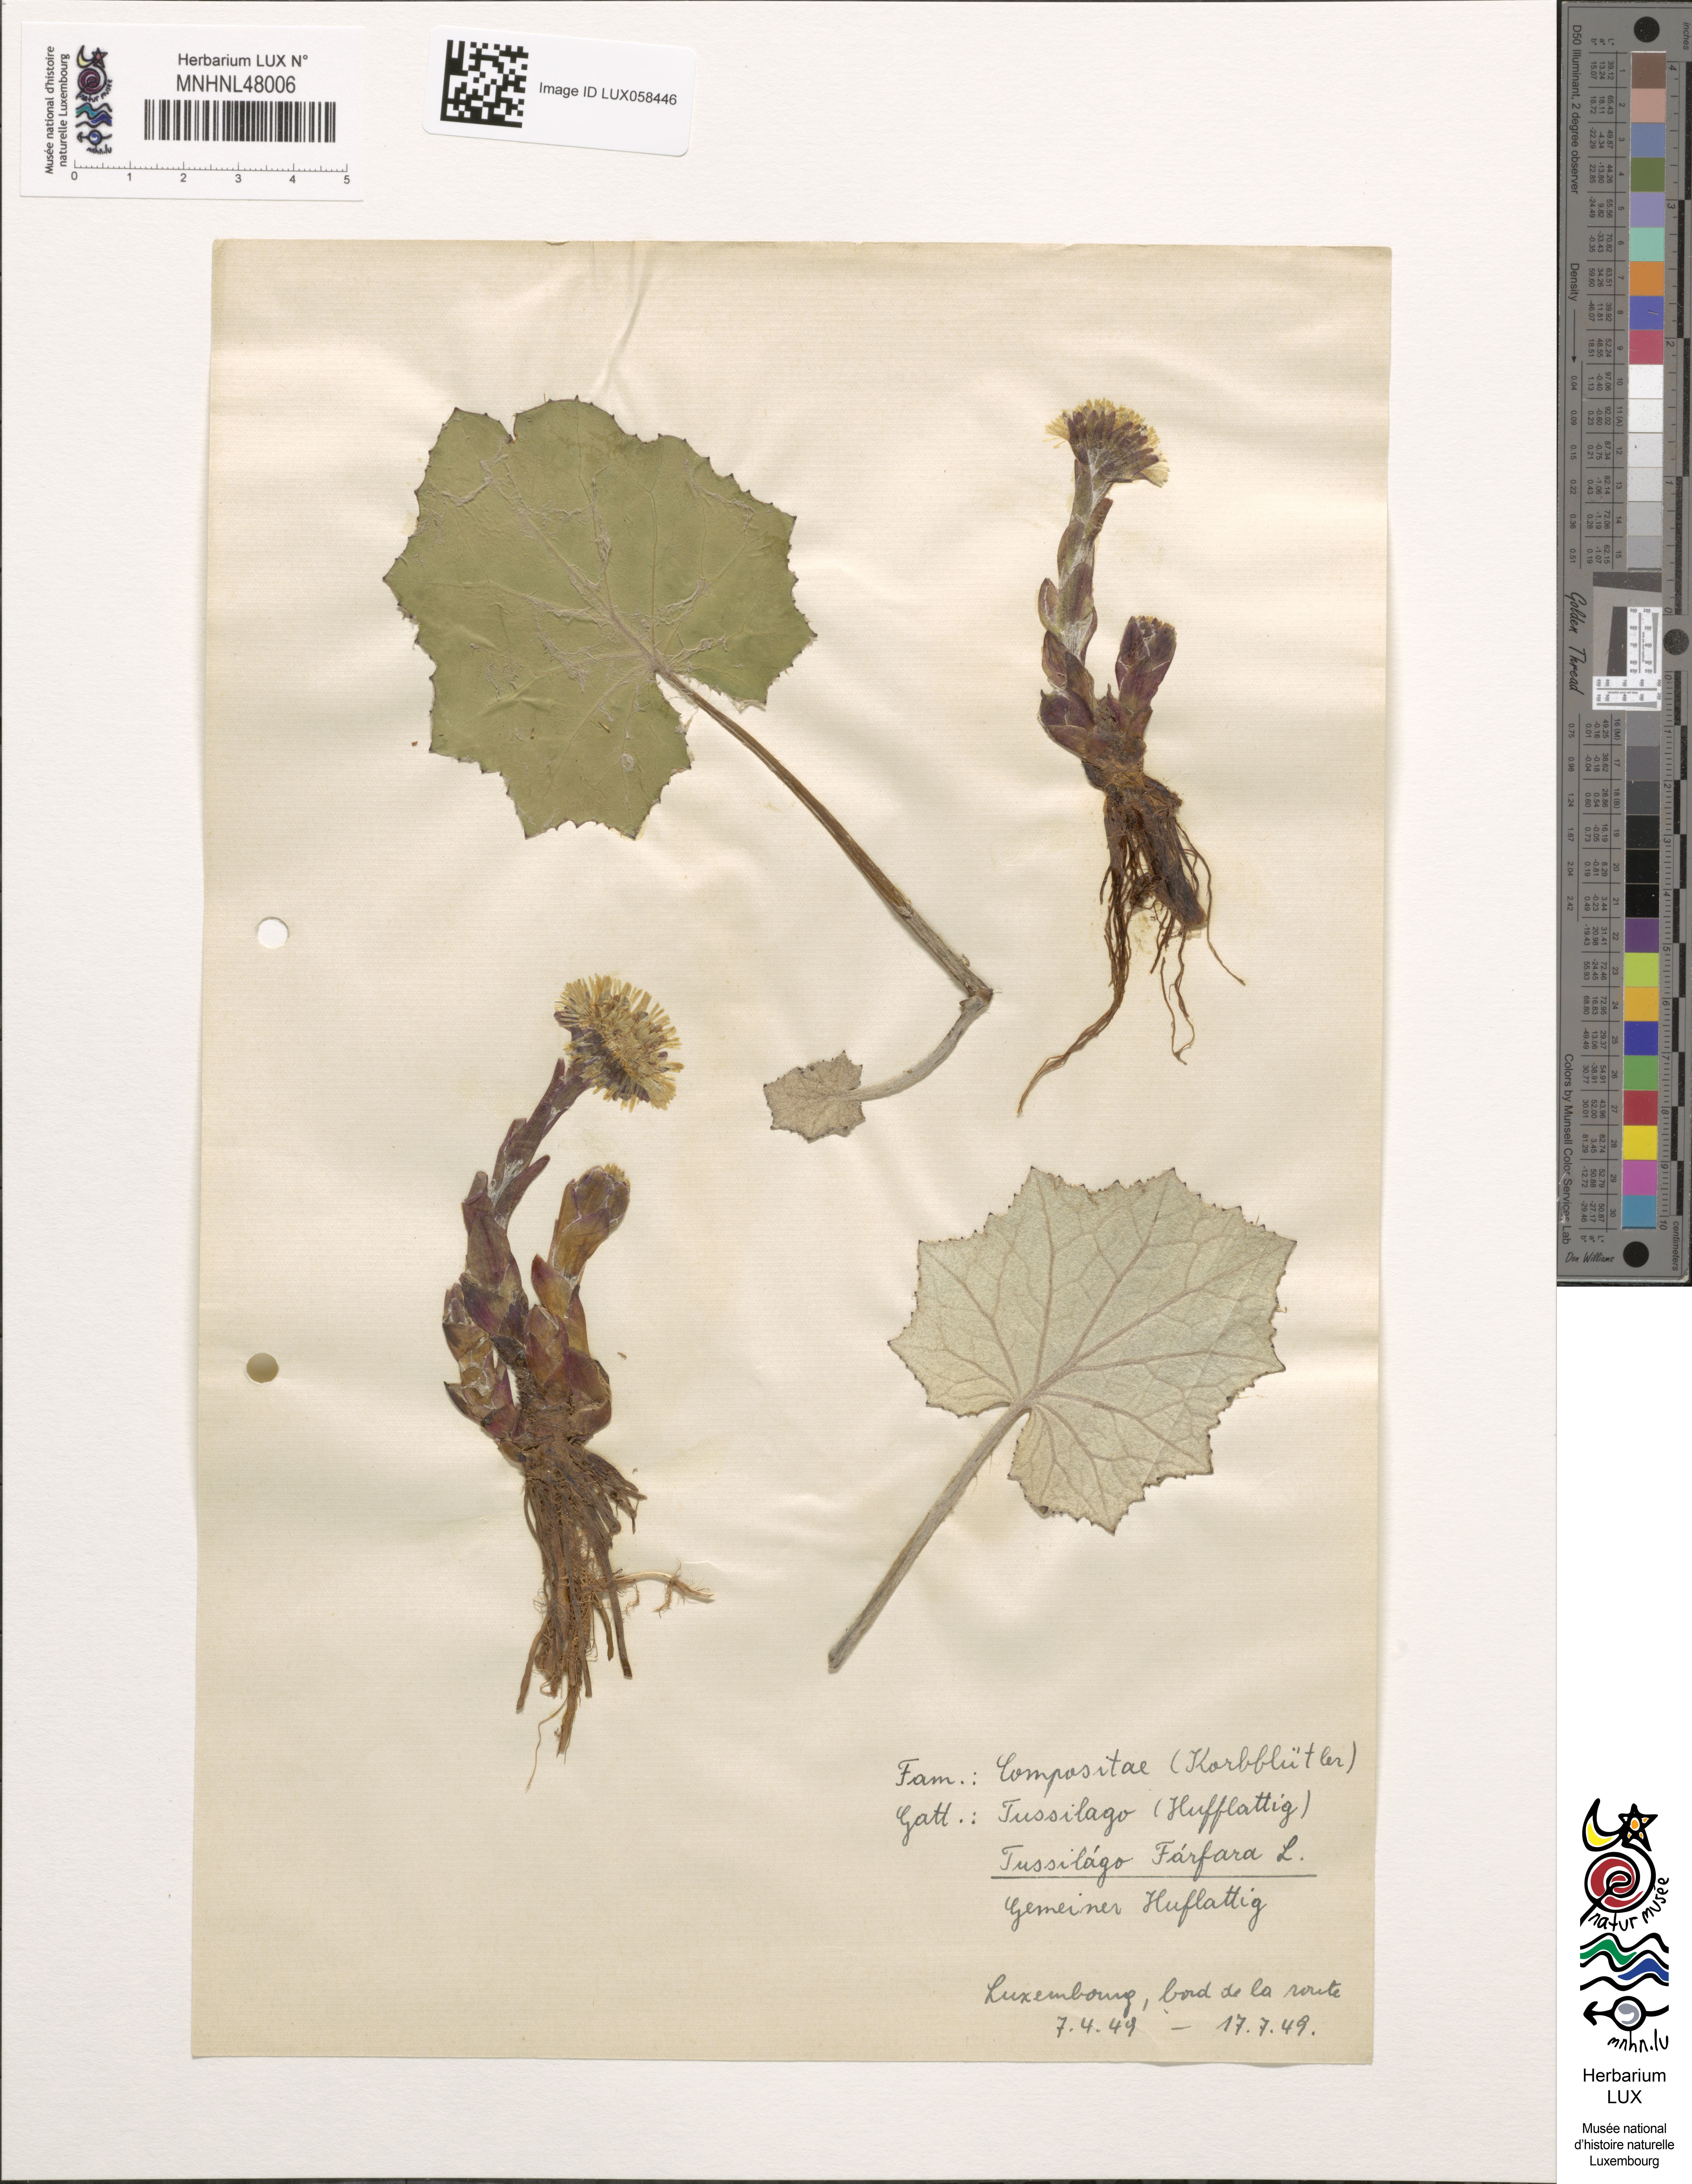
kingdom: Plantae
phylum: Tracheophyta
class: Magnoliopsida
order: Asterales
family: Asteraceae
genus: Tussilago
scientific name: Tussilago farfara
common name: Coltsfoot
